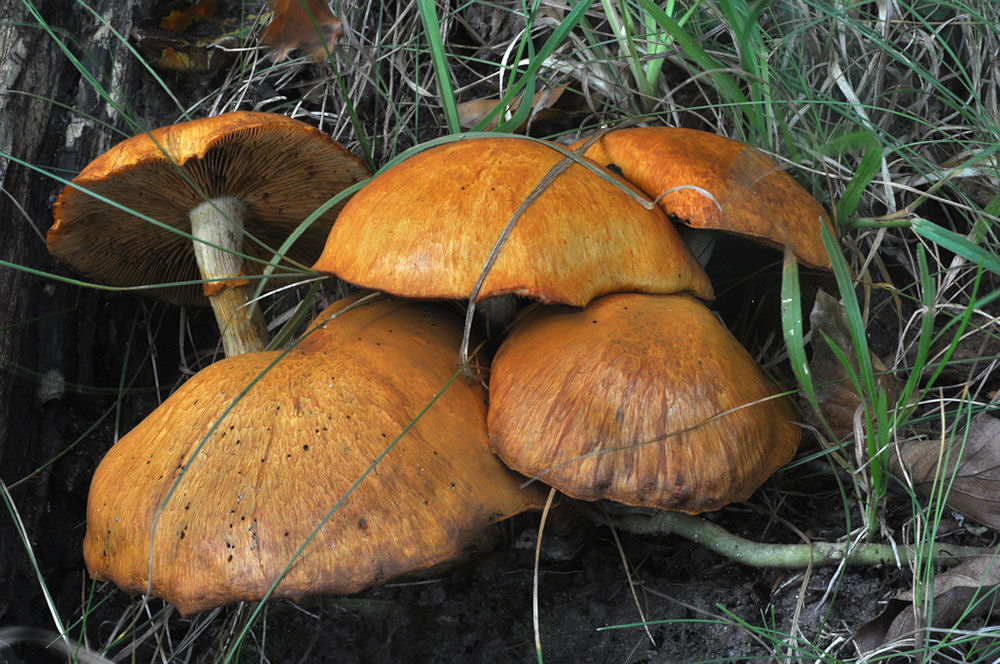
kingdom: Fungi
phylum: Basidiomycota
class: Agaricomycetes
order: Agaricales
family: Hymenogastraceae
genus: Gymnopilus
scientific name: Gymnopilus spectabilis
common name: fibret flammehat
